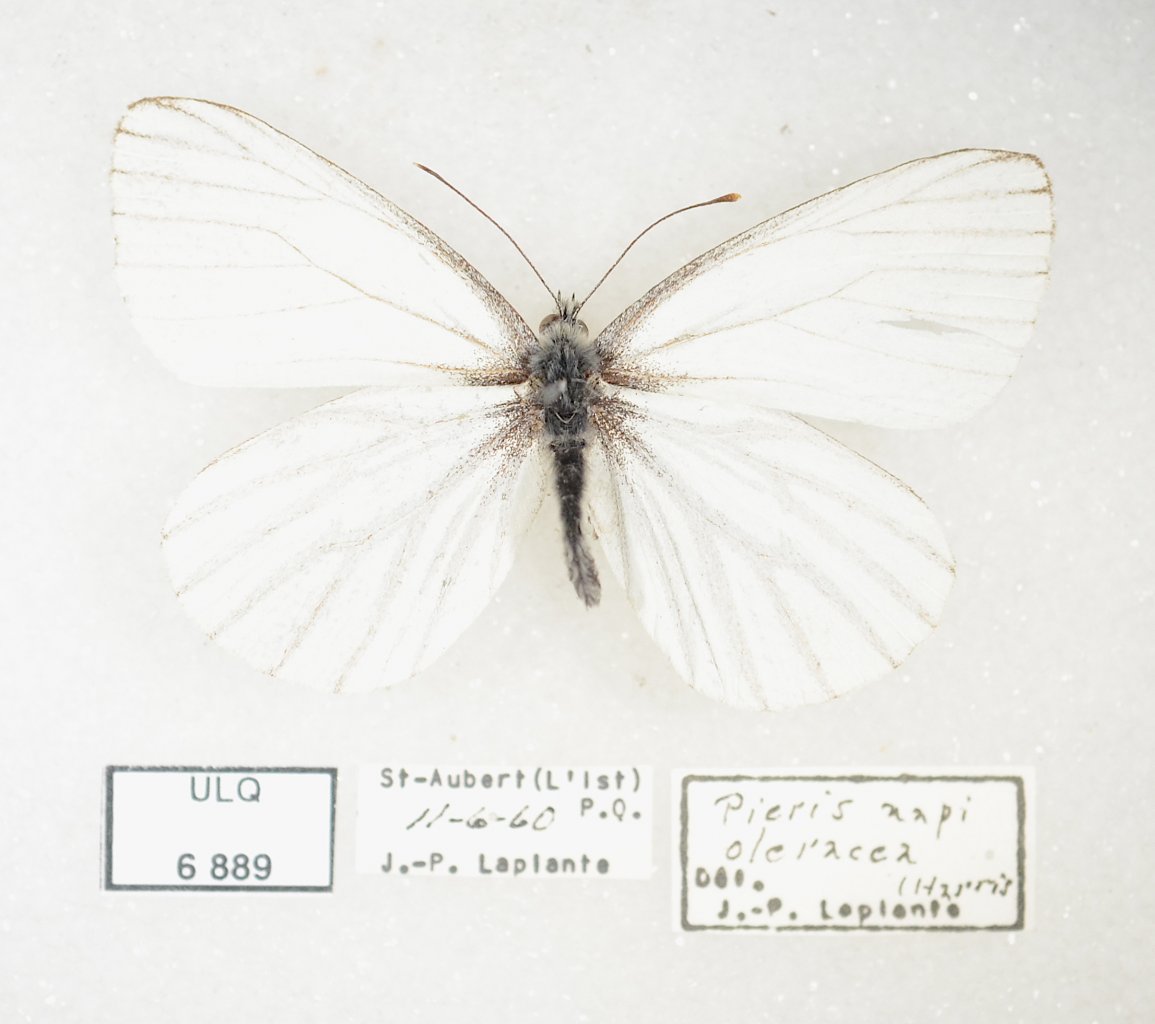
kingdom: Animalia
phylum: Arthropoda
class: Insecta
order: Lepidoptera
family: Pieridae
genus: Pieris
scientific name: Pieris oleracea
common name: Mustard White
